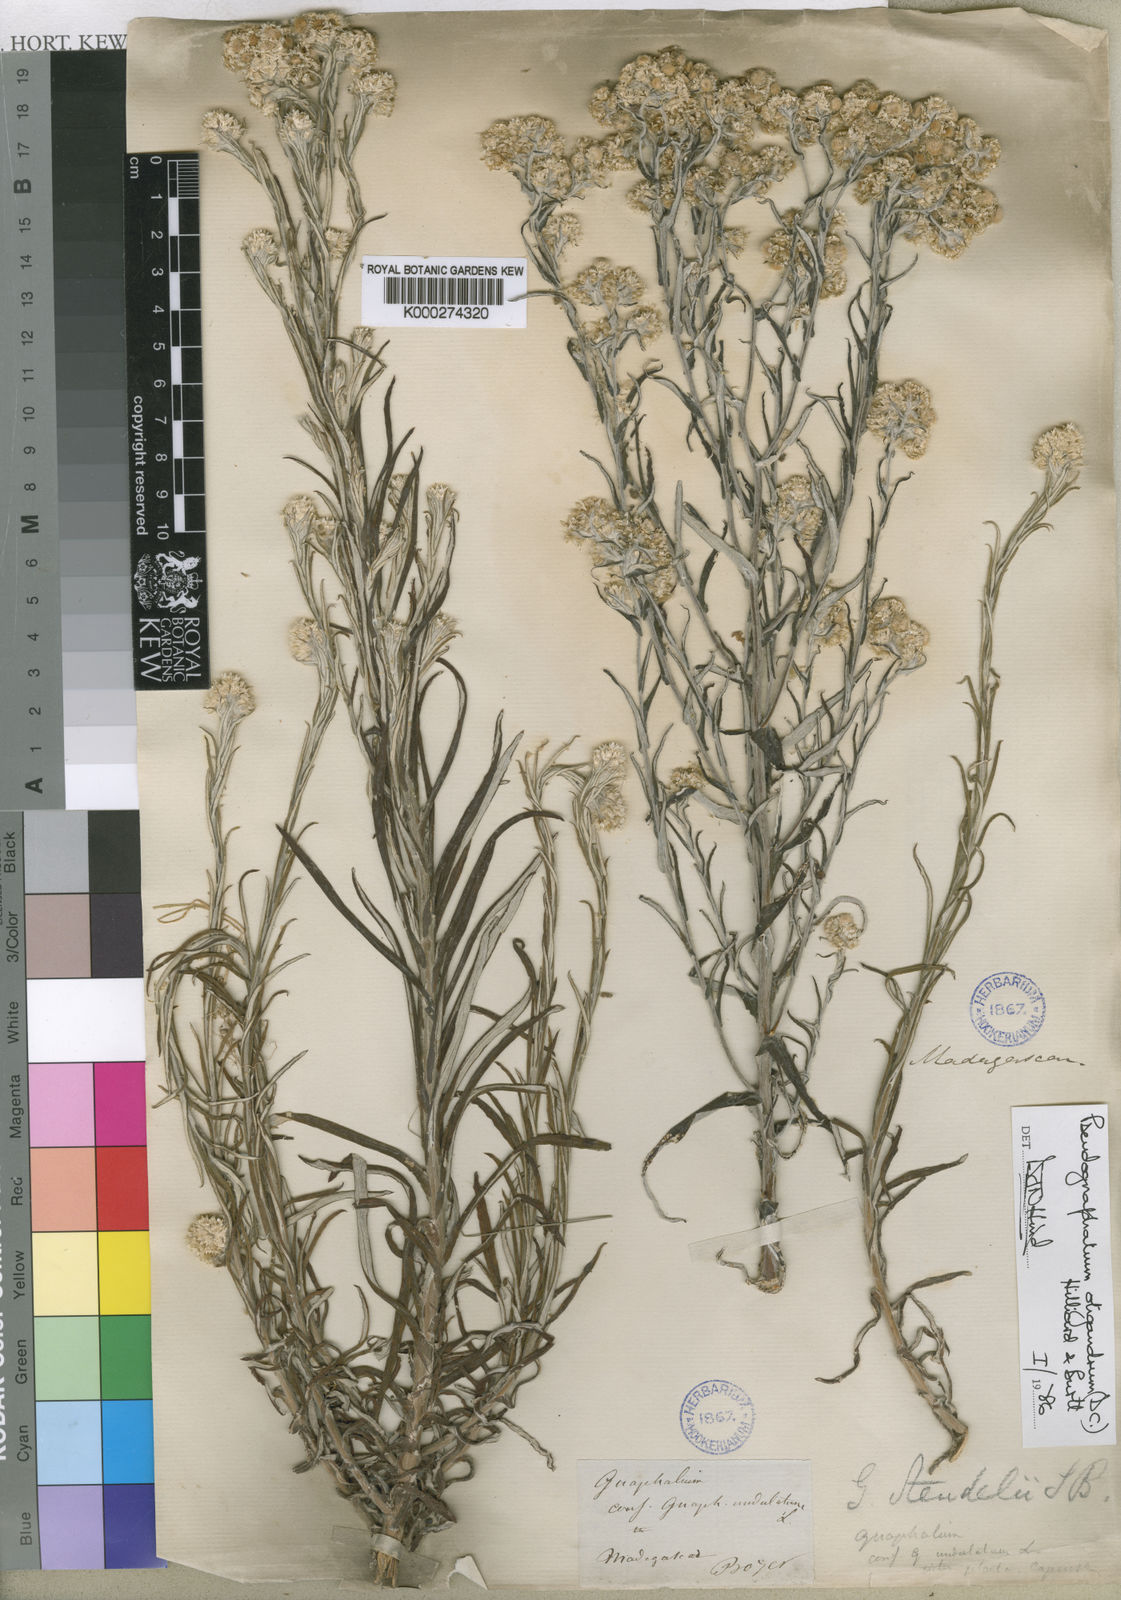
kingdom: Plantae
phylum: Tracheophyta
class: Magnoliopsida
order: Asterales
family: Asteraceae
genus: Pseudognaphalium
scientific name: Pseudognaphalium oligandrum
